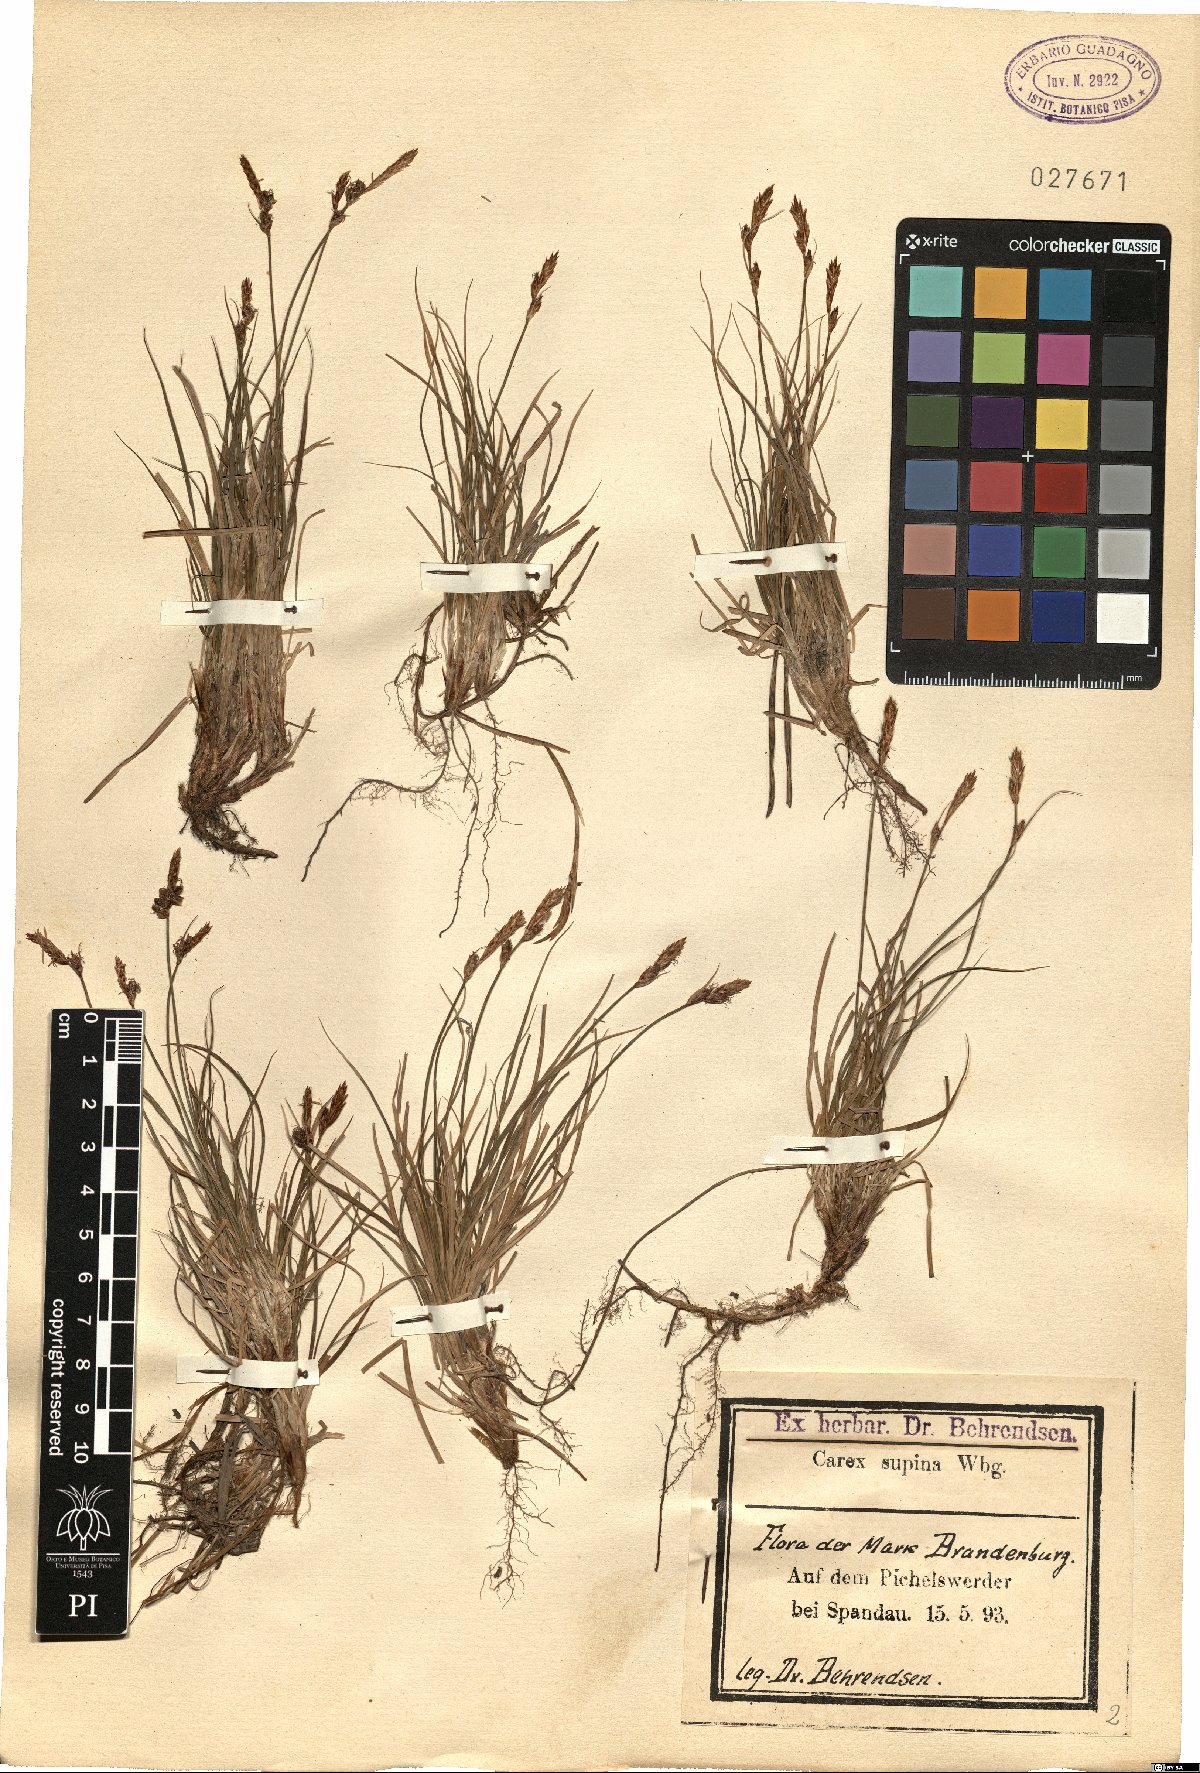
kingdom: Plantae
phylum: Tracheophyta
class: Liliopsida
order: Poales
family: Cyperaceae
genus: Carex
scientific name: Carex supina
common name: Lying-back sedge
